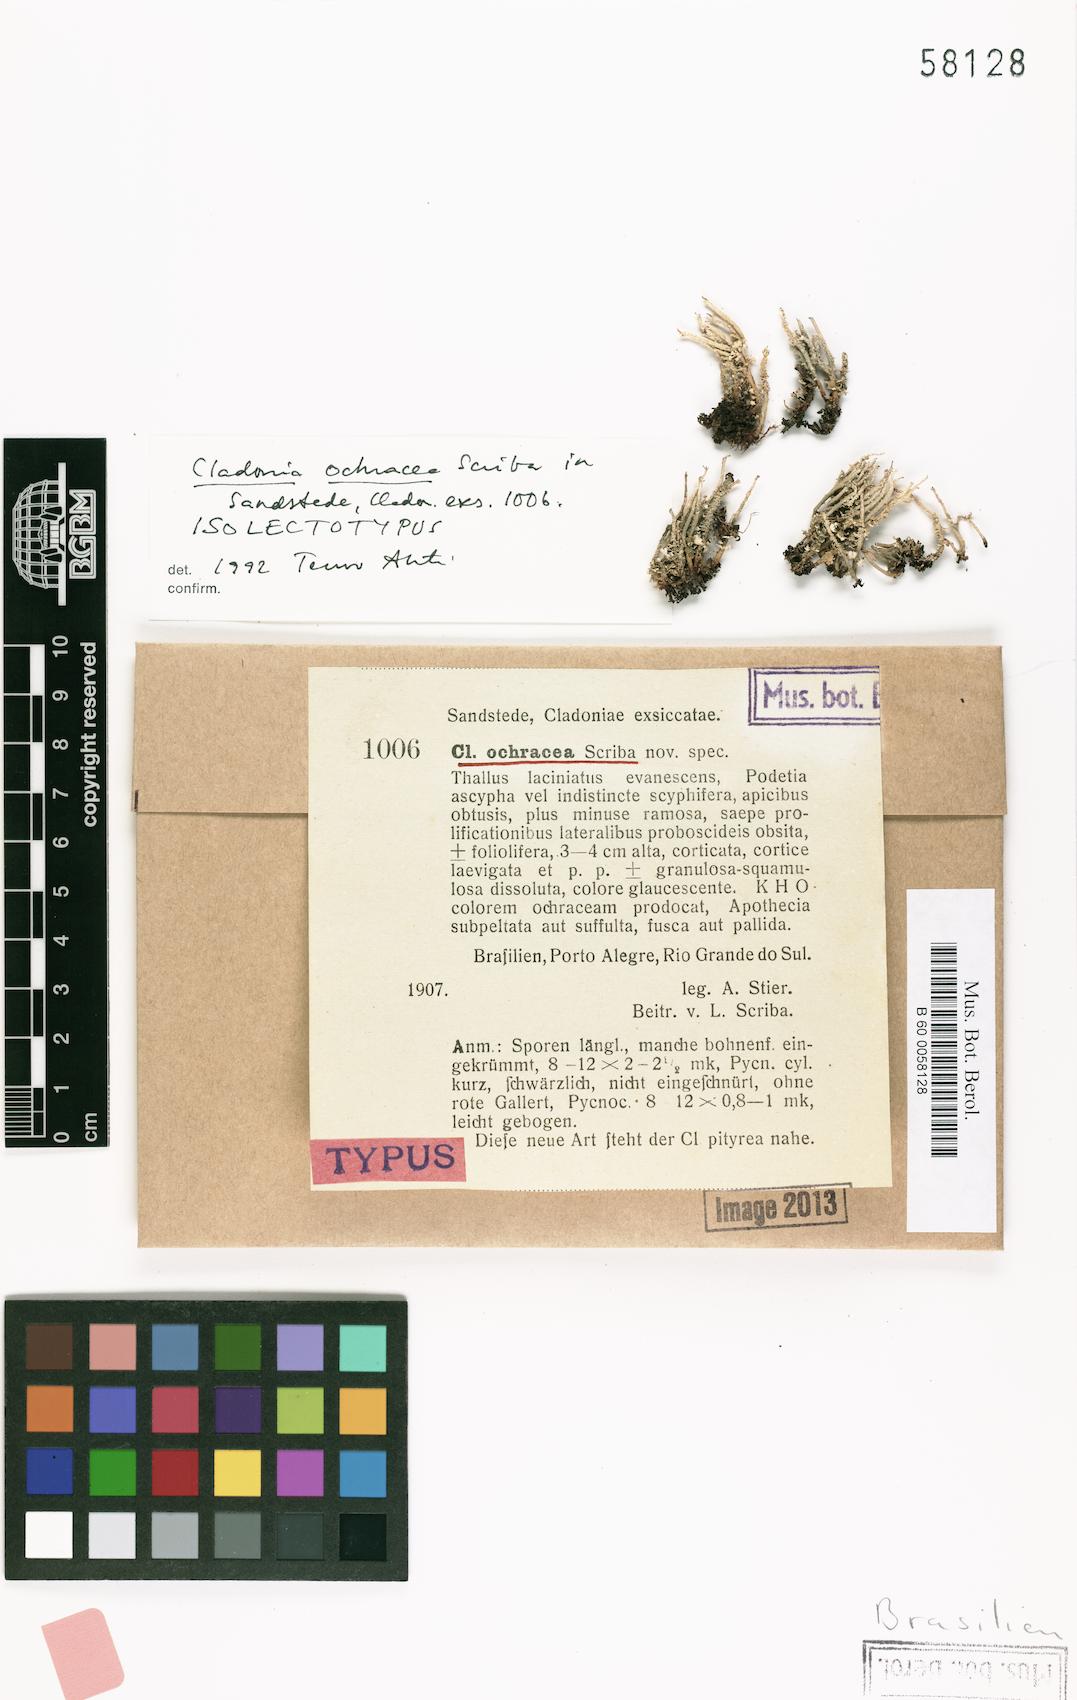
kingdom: Fungi
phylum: Ascomycota
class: Lecanoromycetes
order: Lecanorales
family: Cladoniaceae
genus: Cladonia
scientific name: Cladonia ochracea
